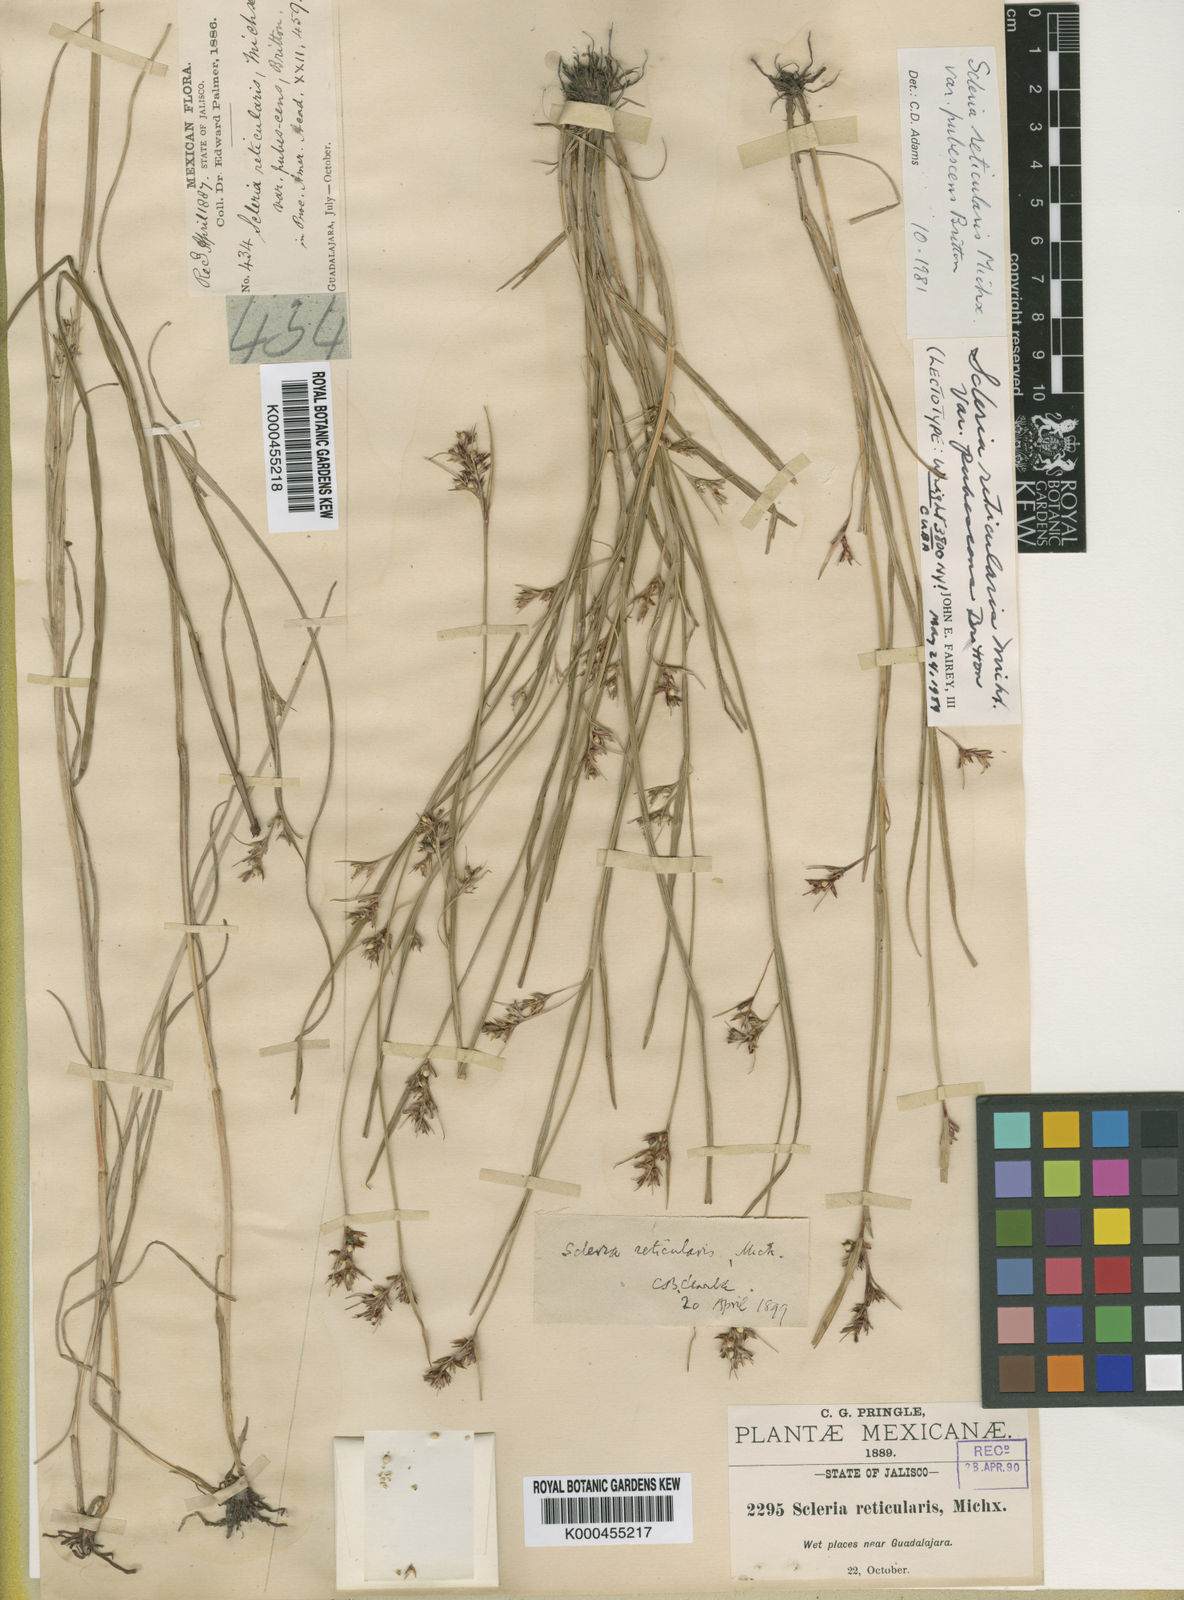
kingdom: Plantae
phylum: Tracheophyta
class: Liliopsida
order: Poales
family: Cyperaceae
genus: Scleria
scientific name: Scleria
